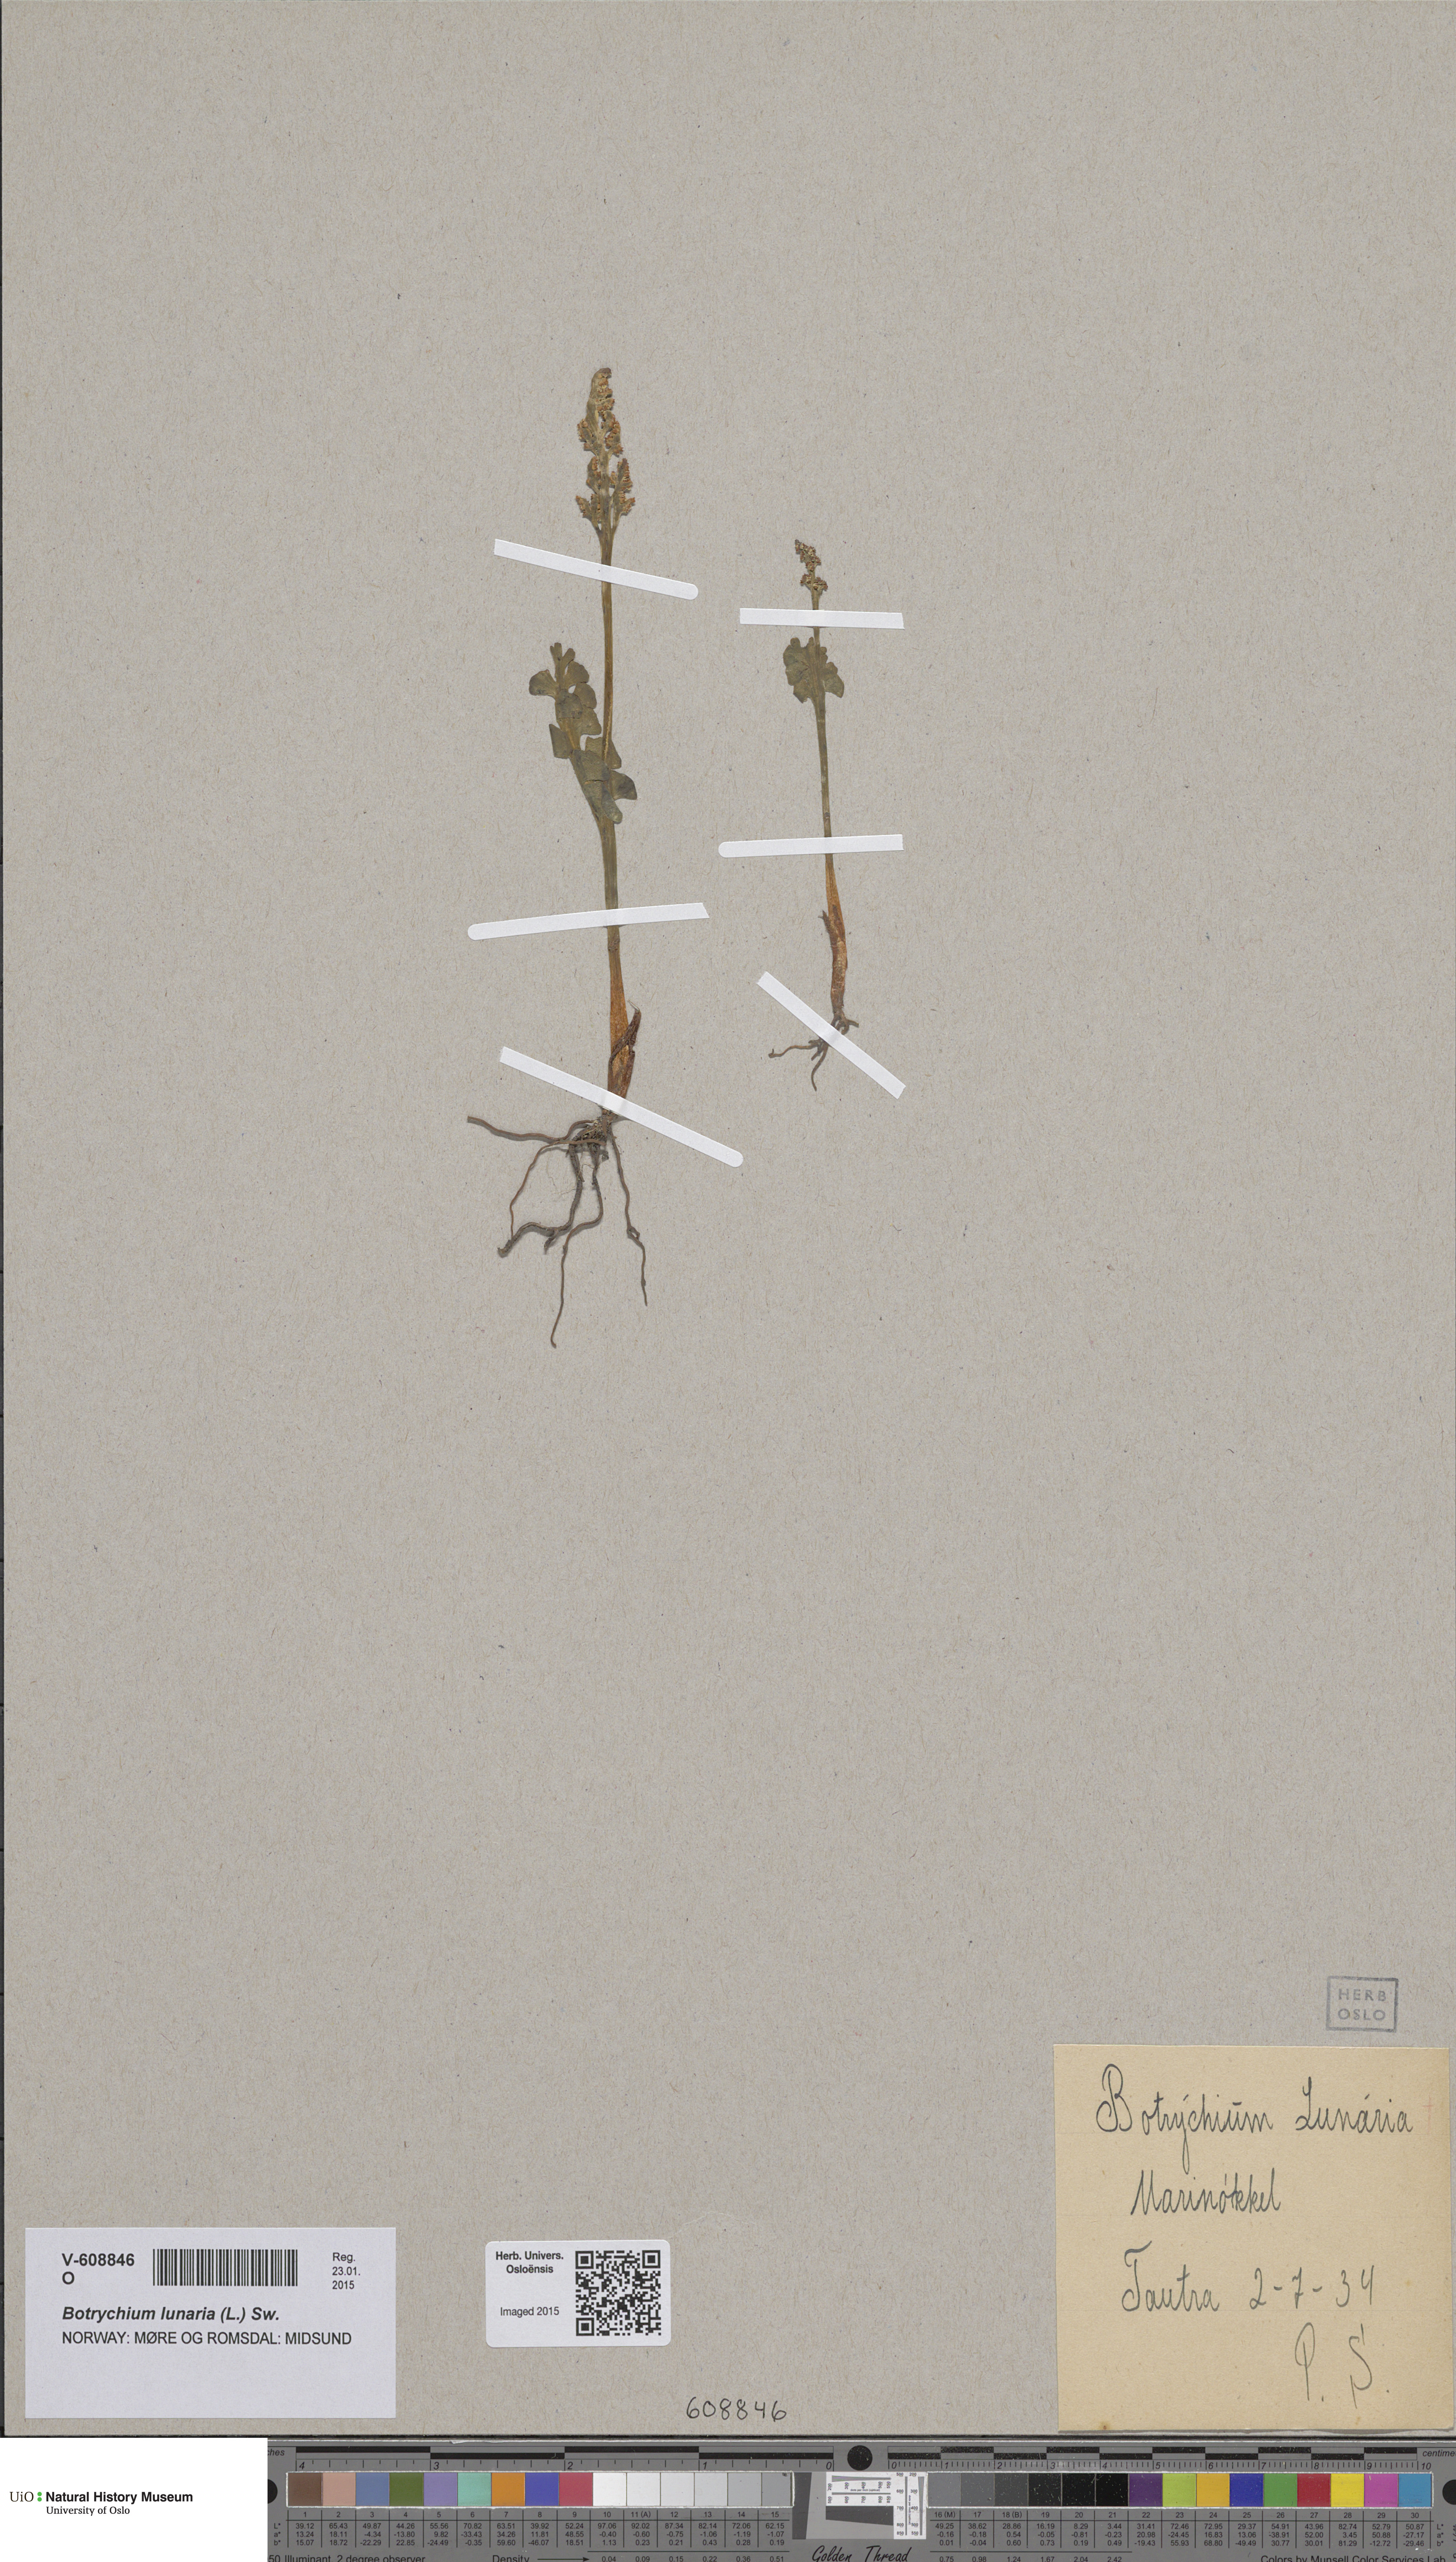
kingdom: Plantae
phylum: Tracheophyta
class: Polypodiopsida
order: Ophioglossales
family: Ophioglossaceae
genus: Botrychium
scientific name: Botrychium lunaria
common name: Moonwort
